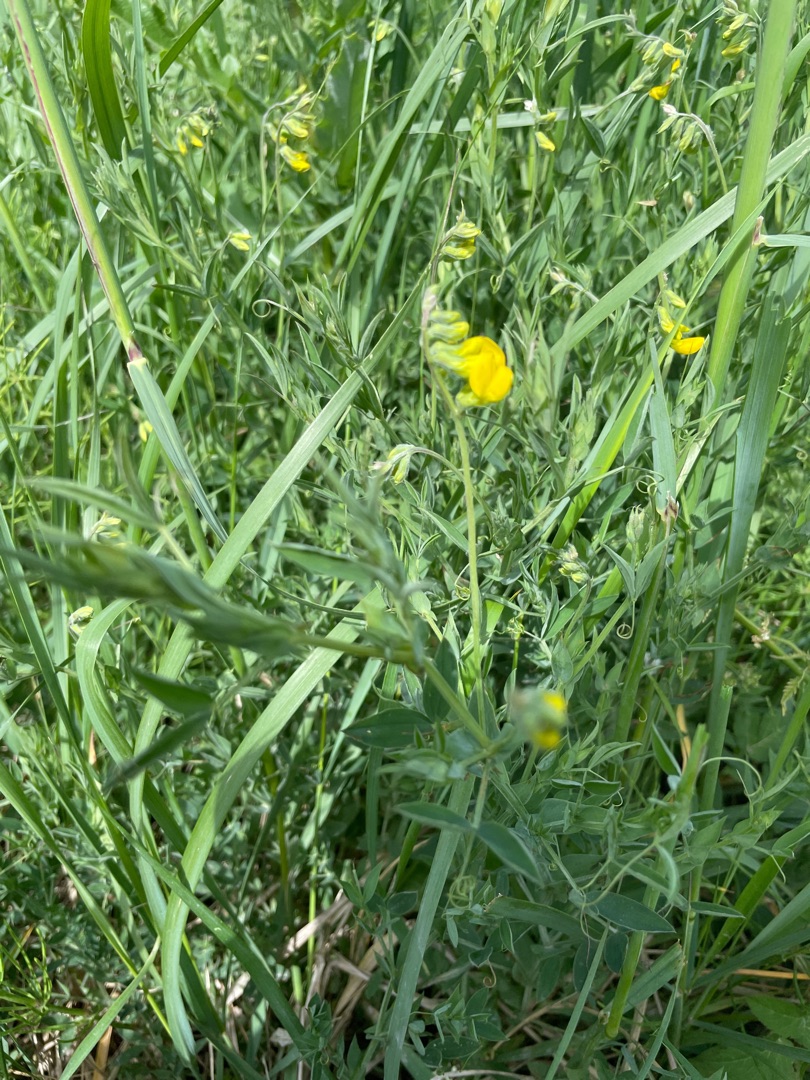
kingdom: Plantae
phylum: Tracheophyta
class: Magnoliopsida
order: Fabales
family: Fabaceae
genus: Lathyrus
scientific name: Lathyrus pratensis
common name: Gul fladbælg
